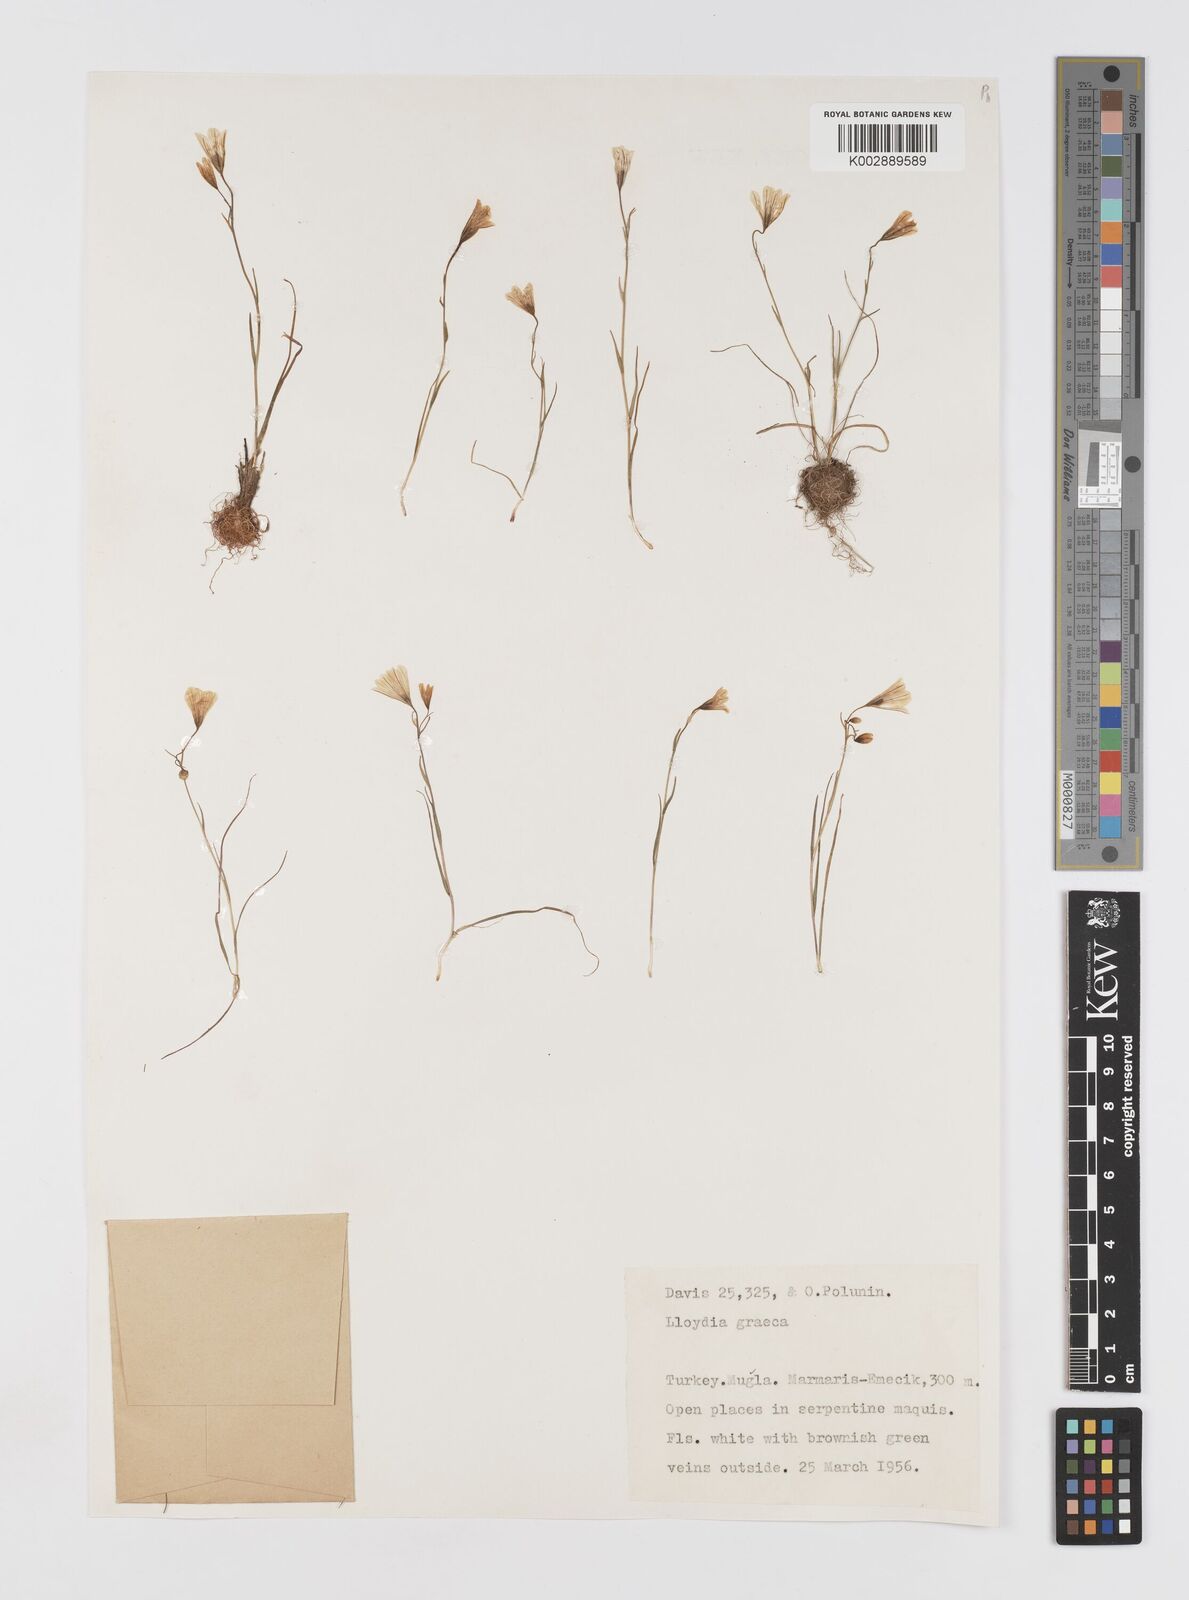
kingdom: Plantae
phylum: Tracheophyta
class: Liliopsida
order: Liliales
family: Liliaceae
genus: Gagea
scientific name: Gagea graeca
